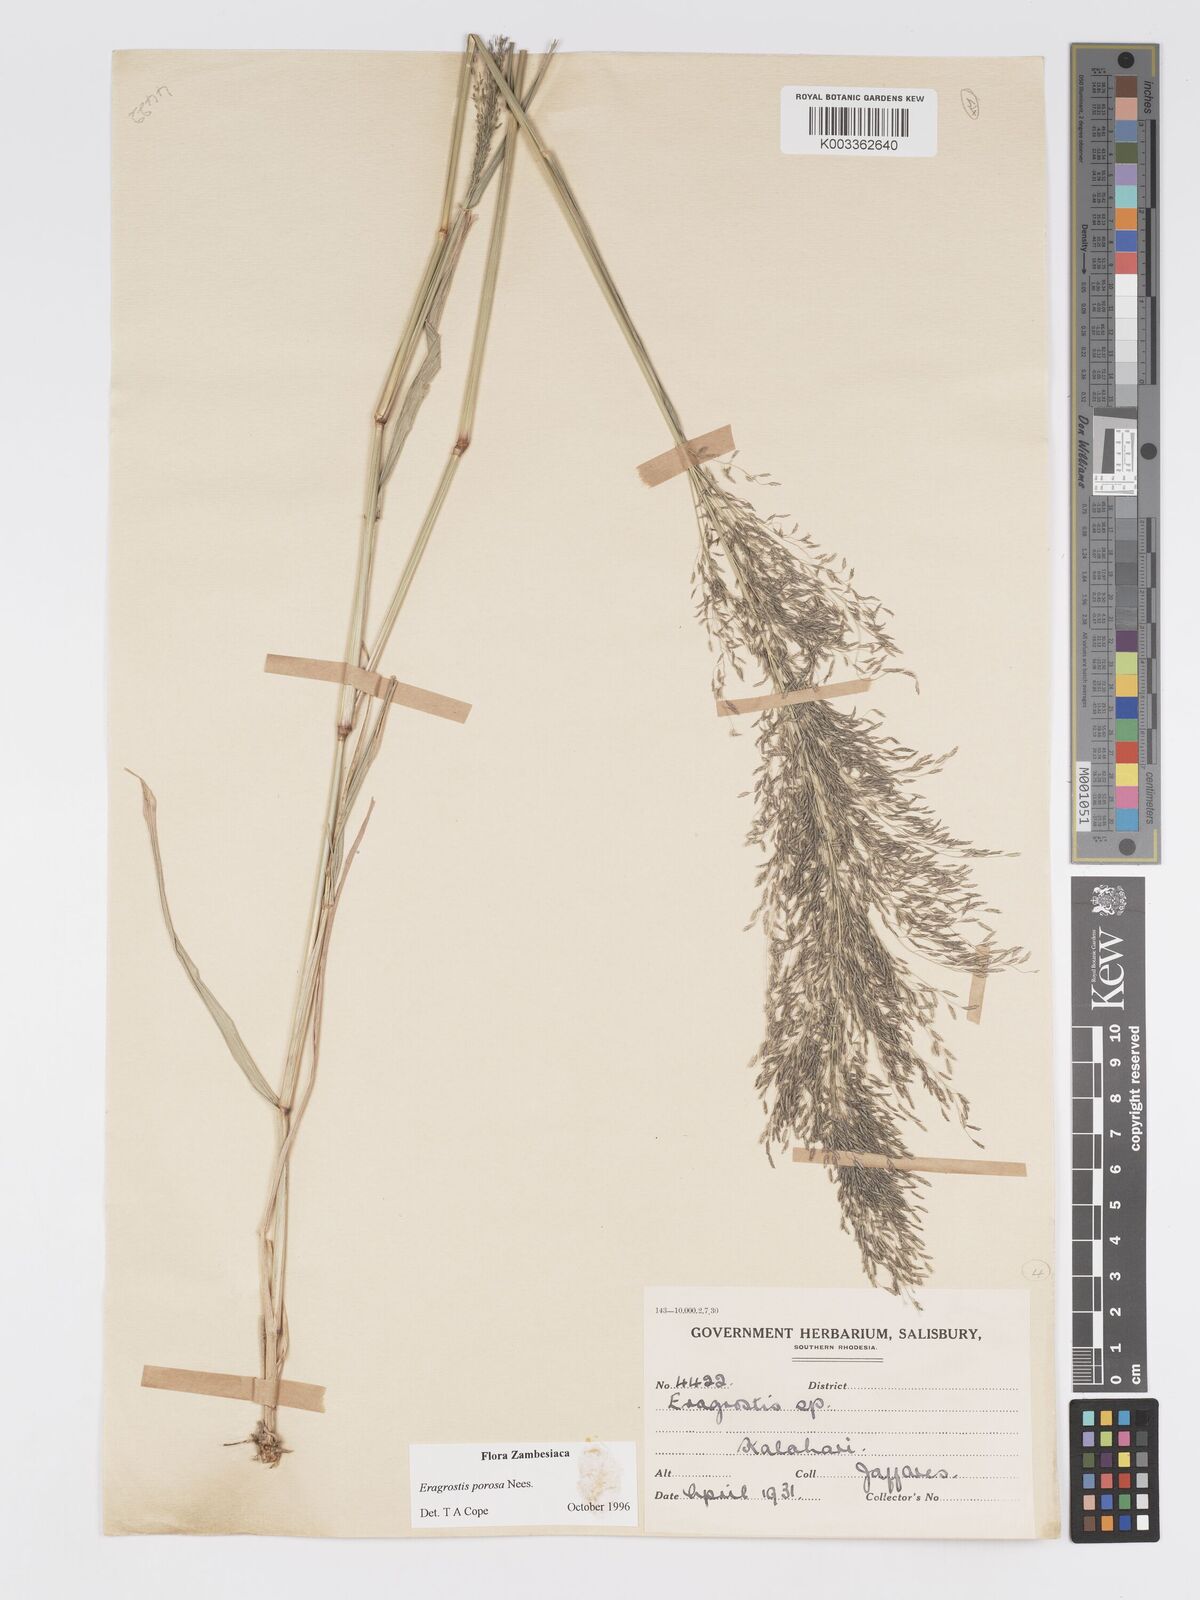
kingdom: Plantae
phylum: Tracheophyta
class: Liliopsida
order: Poales
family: Poaceae
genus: Eragrostis
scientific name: Eragrostis porosa
